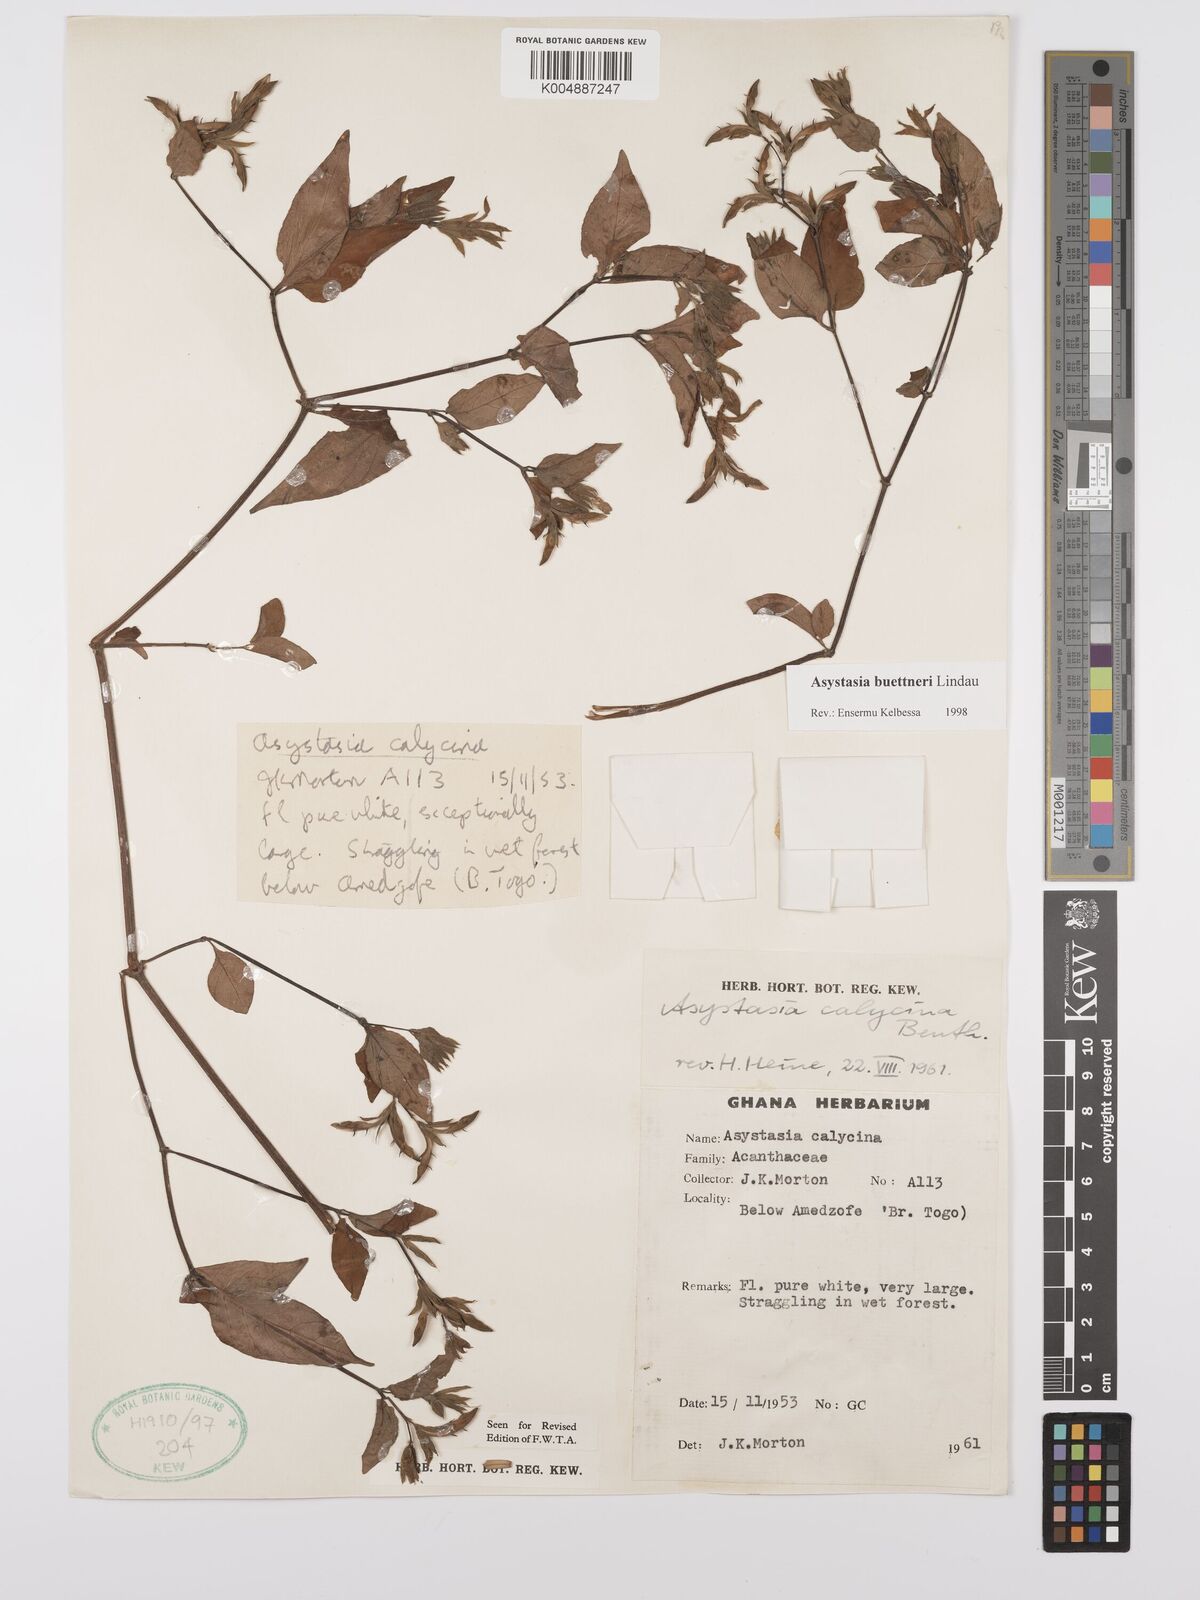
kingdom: Plantae
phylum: Tracheophyta
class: Magnoliopsida
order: Lamiales
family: Acanthaceae
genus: Asystasia
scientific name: Asystasia buettneri
